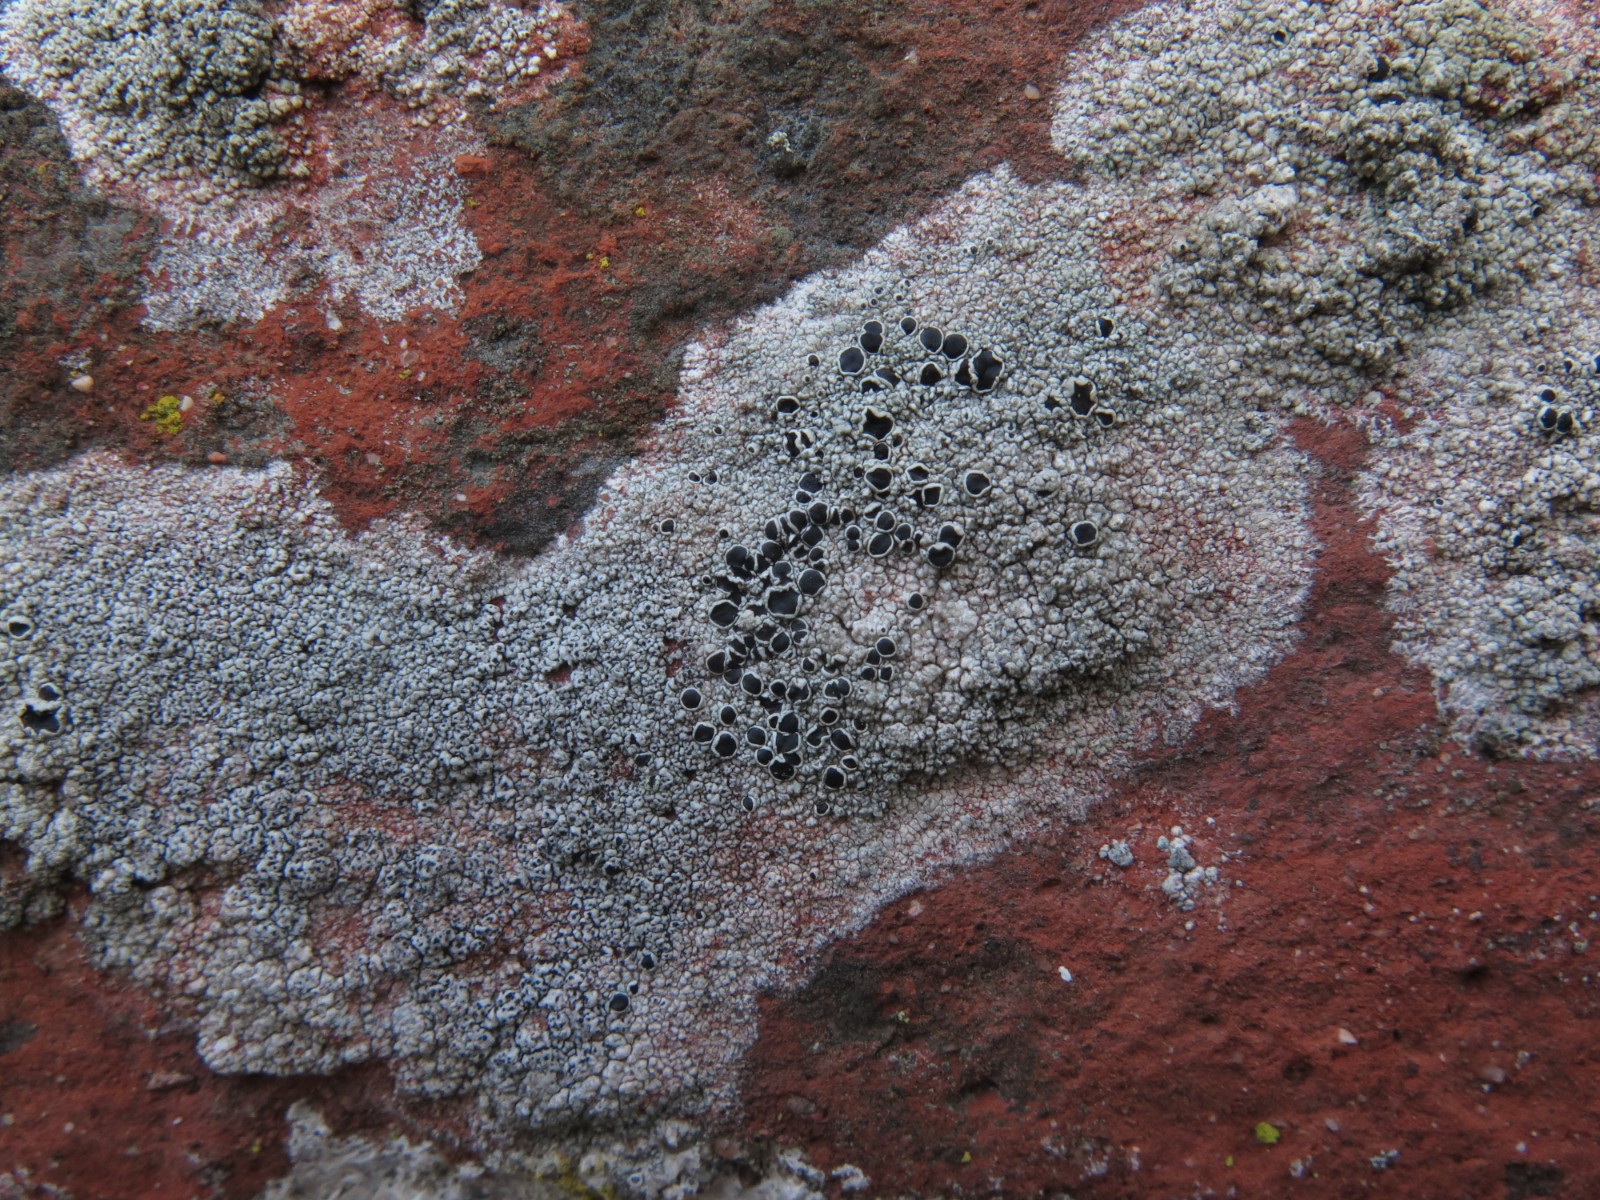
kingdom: Fungi
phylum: Ascomycota
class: Lecanoromycetes
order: Lecanorales
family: Tephromelataceae
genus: Tephromela
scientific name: Tephromela atra
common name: sortfrugtet kantskivelav
